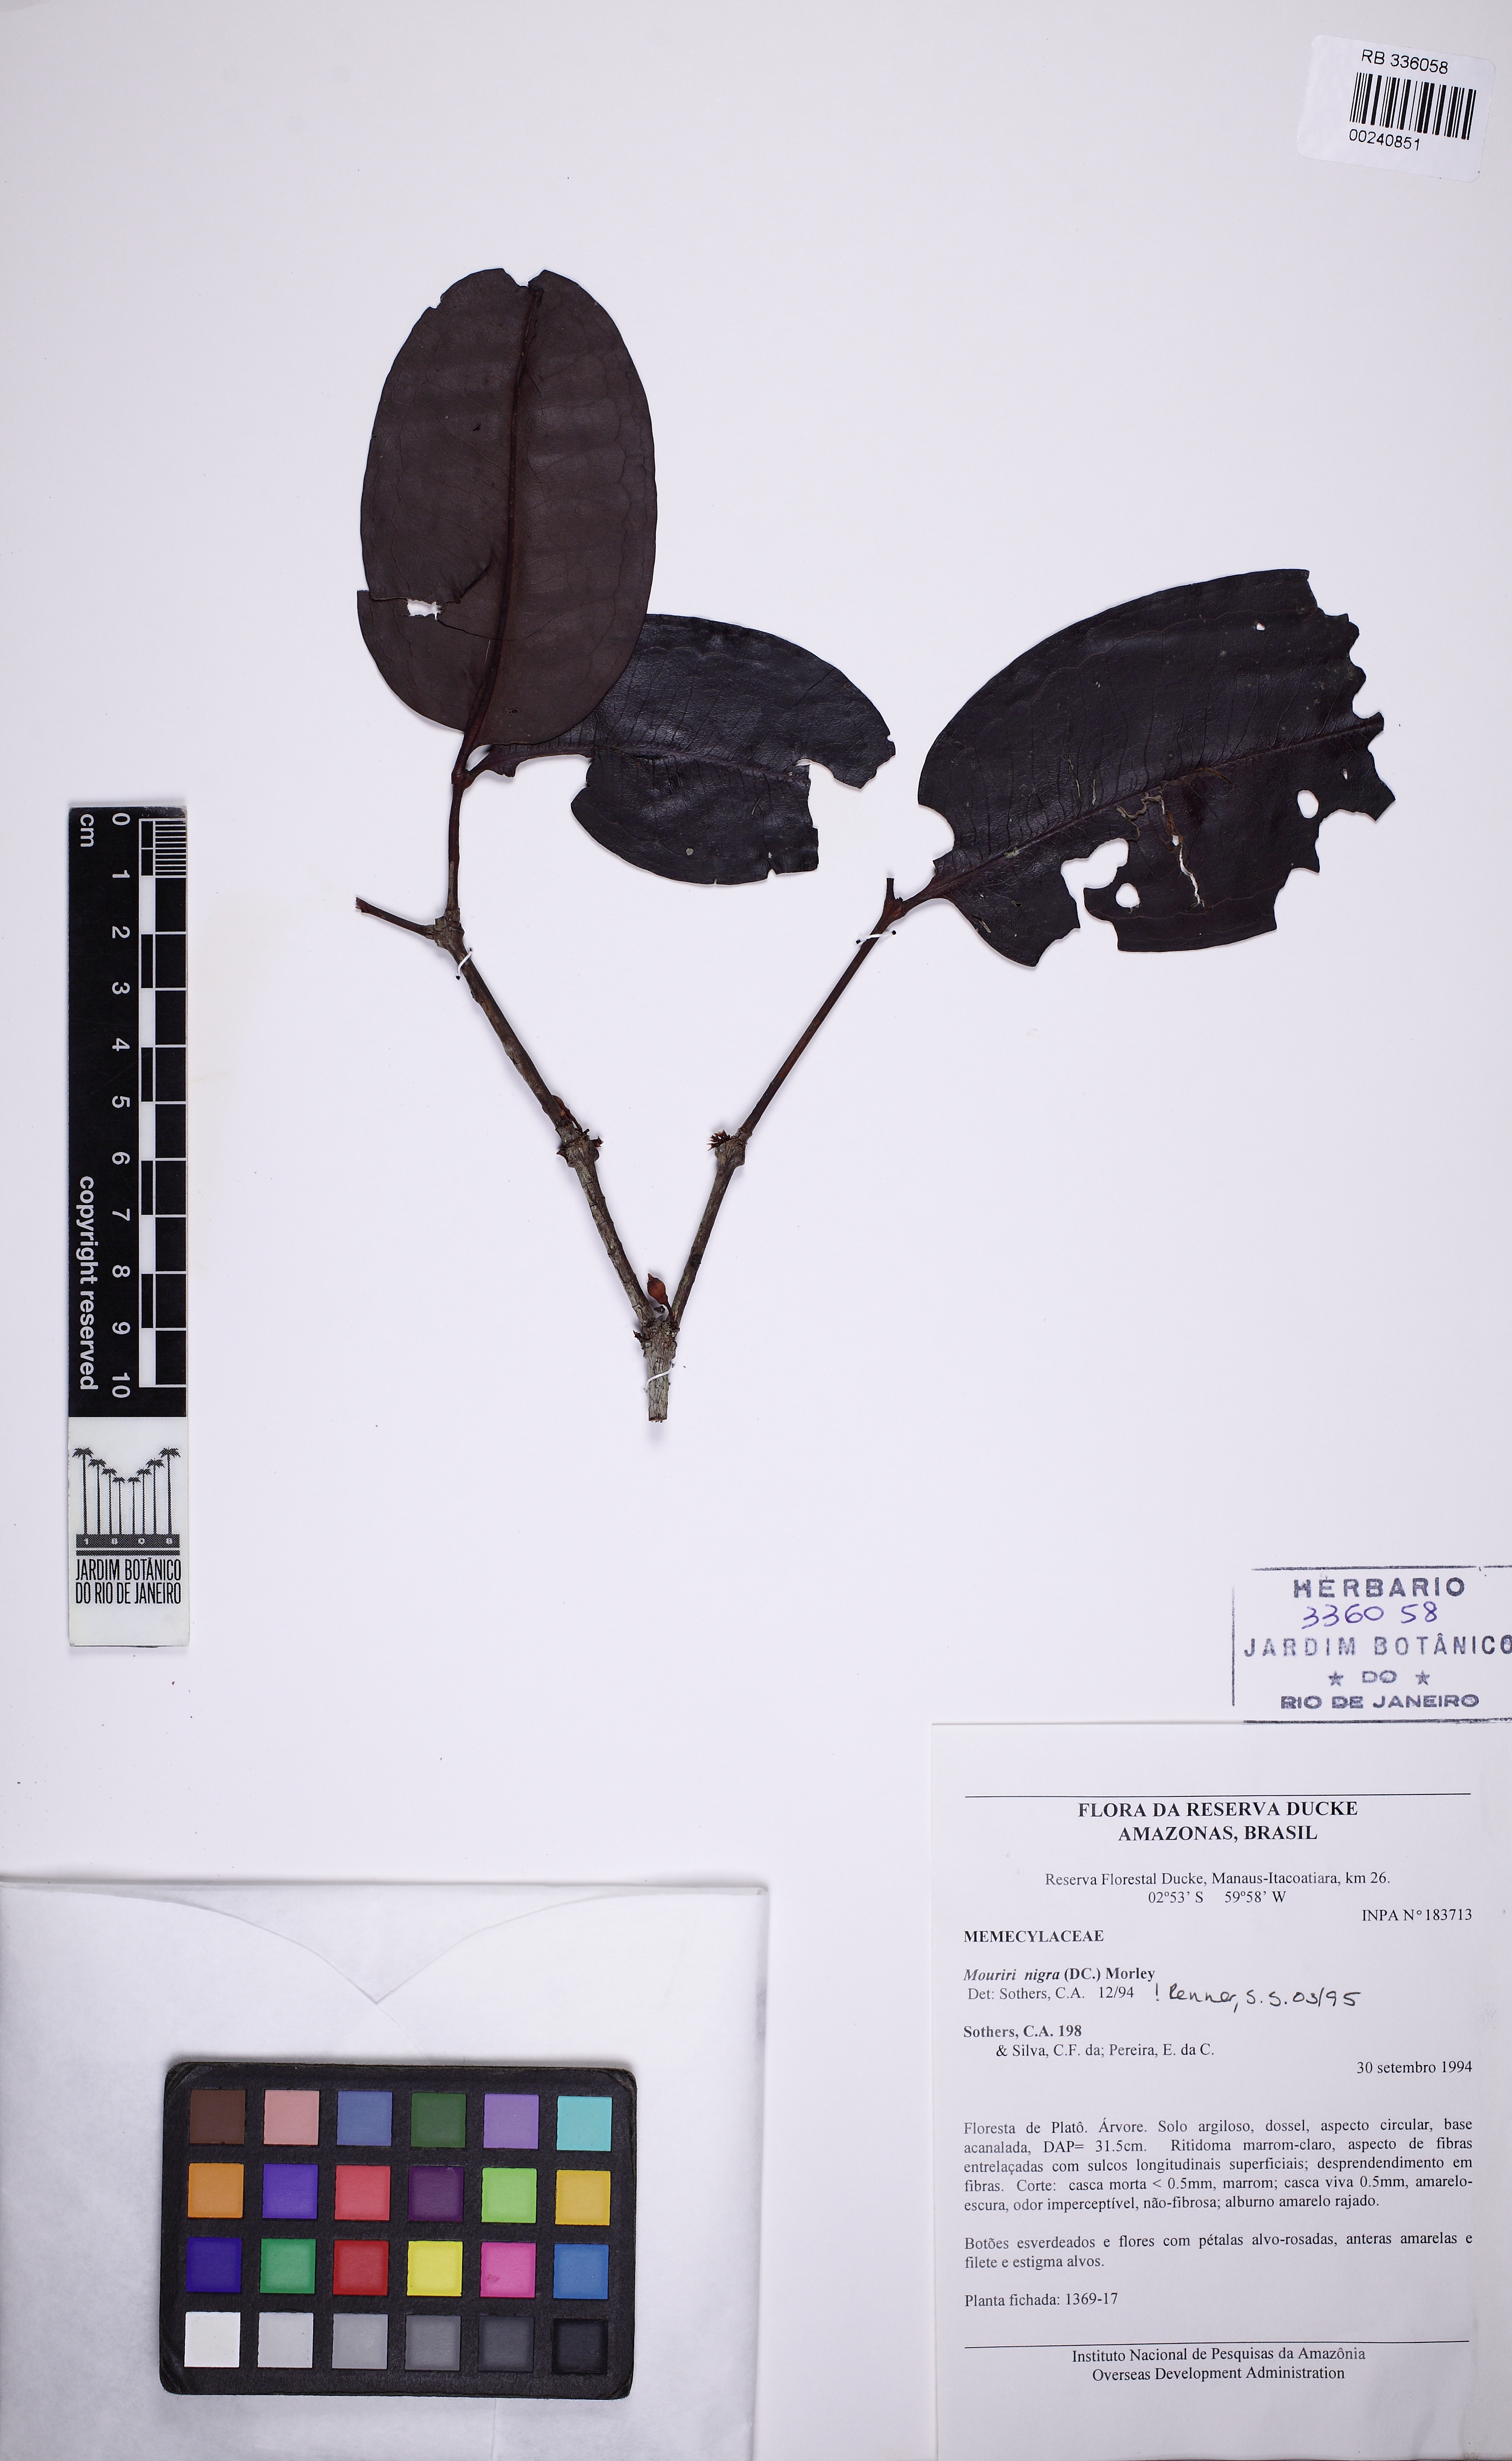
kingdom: Plantae
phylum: Tracheophyta
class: Magnoliopsida
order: Myrtales
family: Melastomataceae
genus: Mouriri
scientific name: Mouriri nigra
